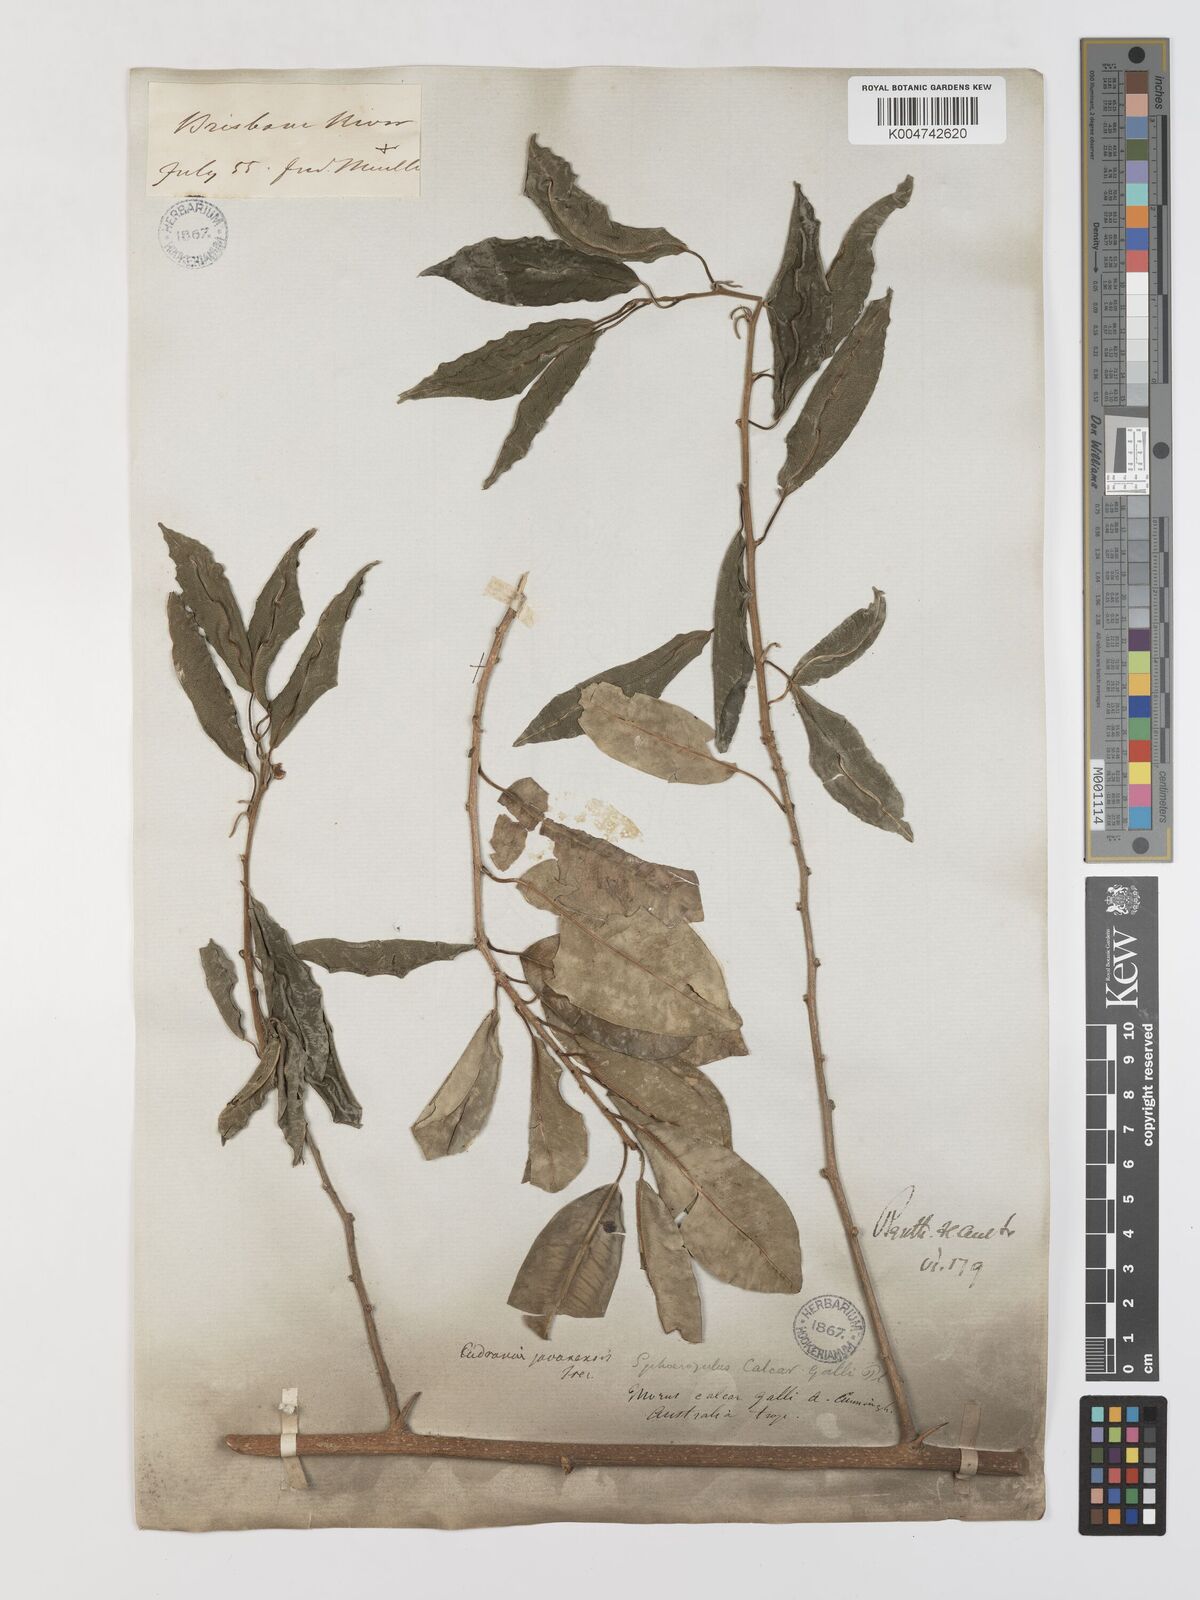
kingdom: Plantae
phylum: Tracheophyta
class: Magnoliopsida
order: Rosales
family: Moraceae
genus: Maclura
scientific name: Maclura cochinchinensis
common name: Cockspurthorn
